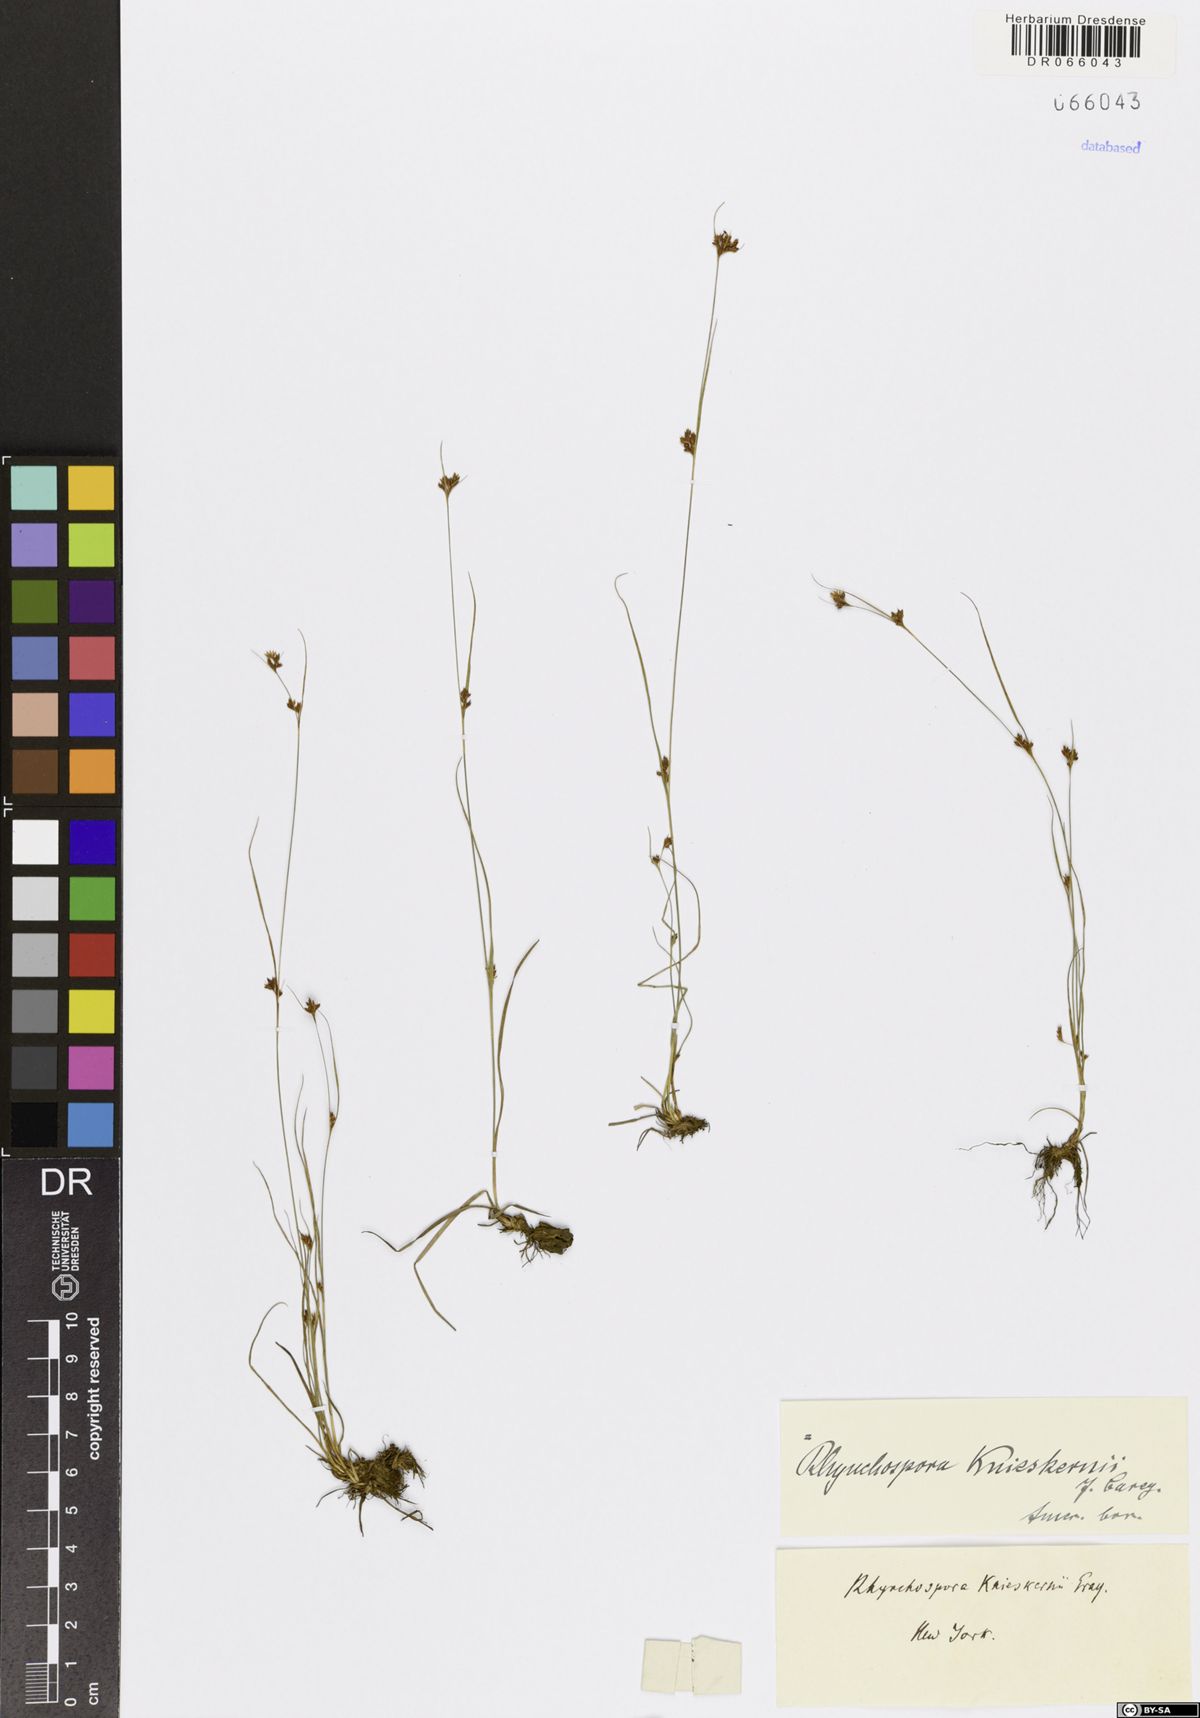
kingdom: Plantae
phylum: Tracheophyta
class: Liliopsida
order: Poales
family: Cyperaceae
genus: Rhynchospora
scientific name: Rhynchospora knieskernii
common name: Knieskern's beak-rush
